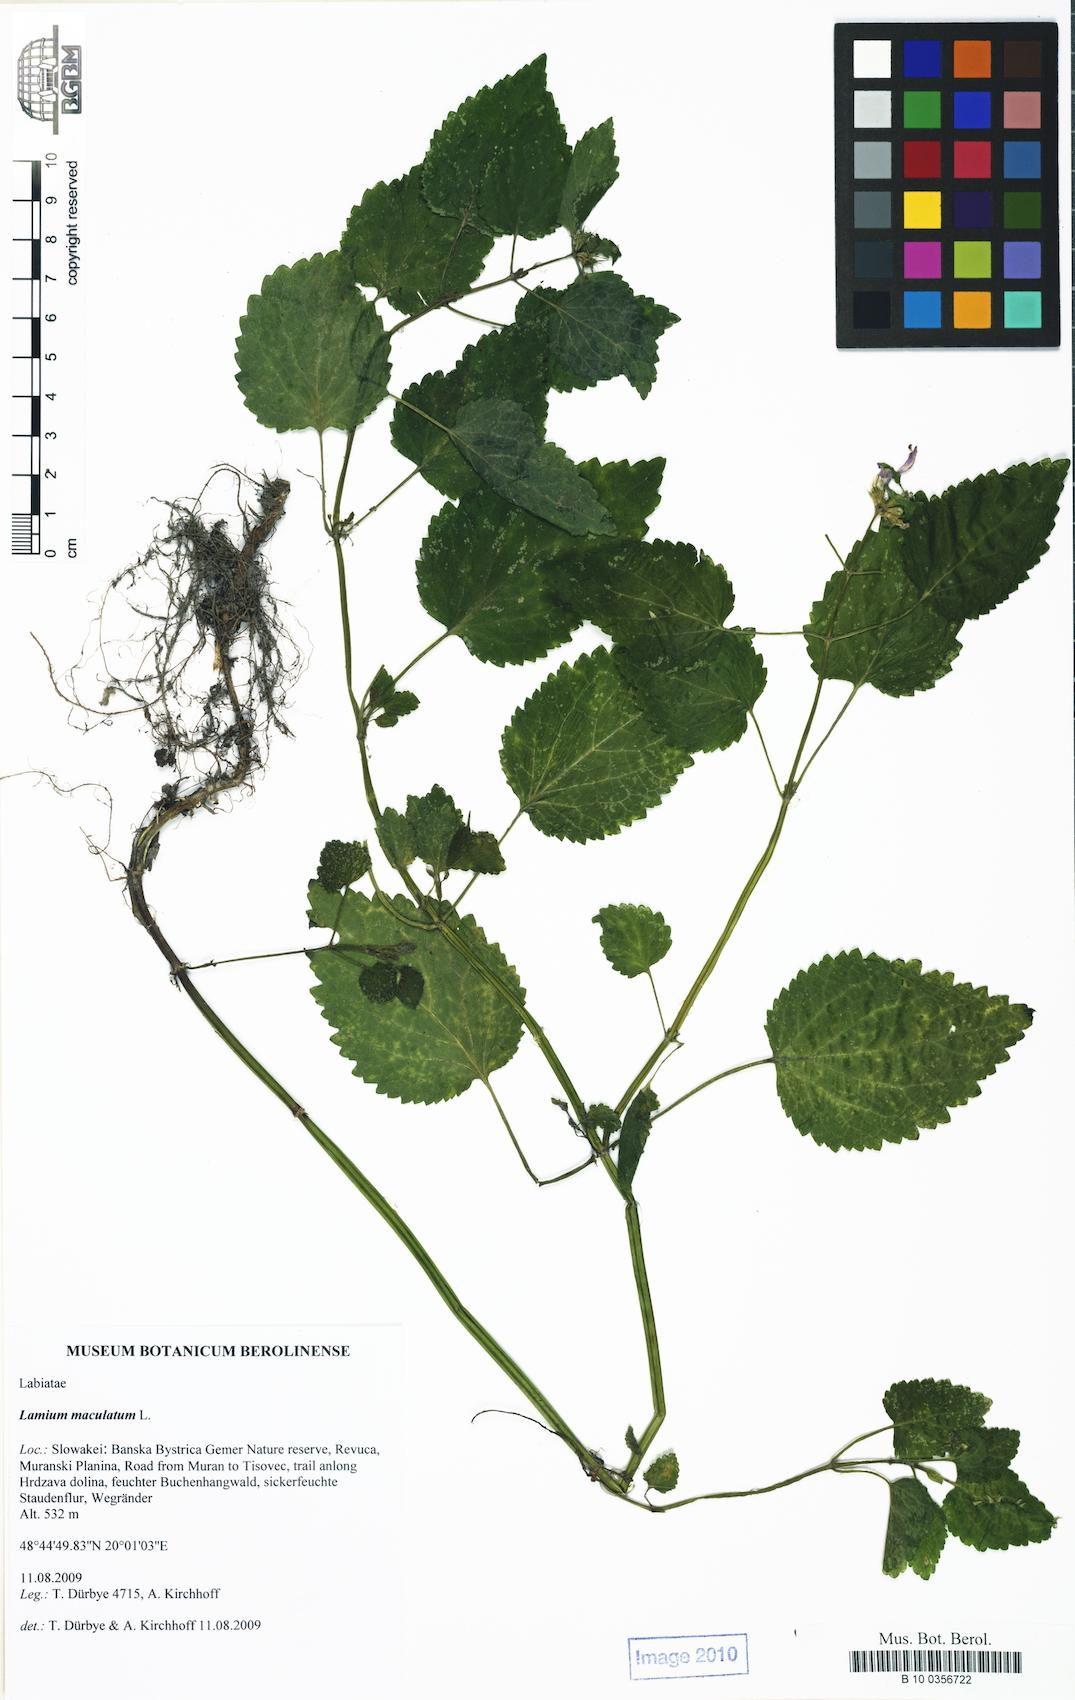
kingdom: Plantae
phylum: Tracheophyta
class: Magnoliopsida
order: Lamiales
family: Lamiaceae
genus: Lamium
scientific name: Lamium maculatum
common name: Spotted dead-nettle
